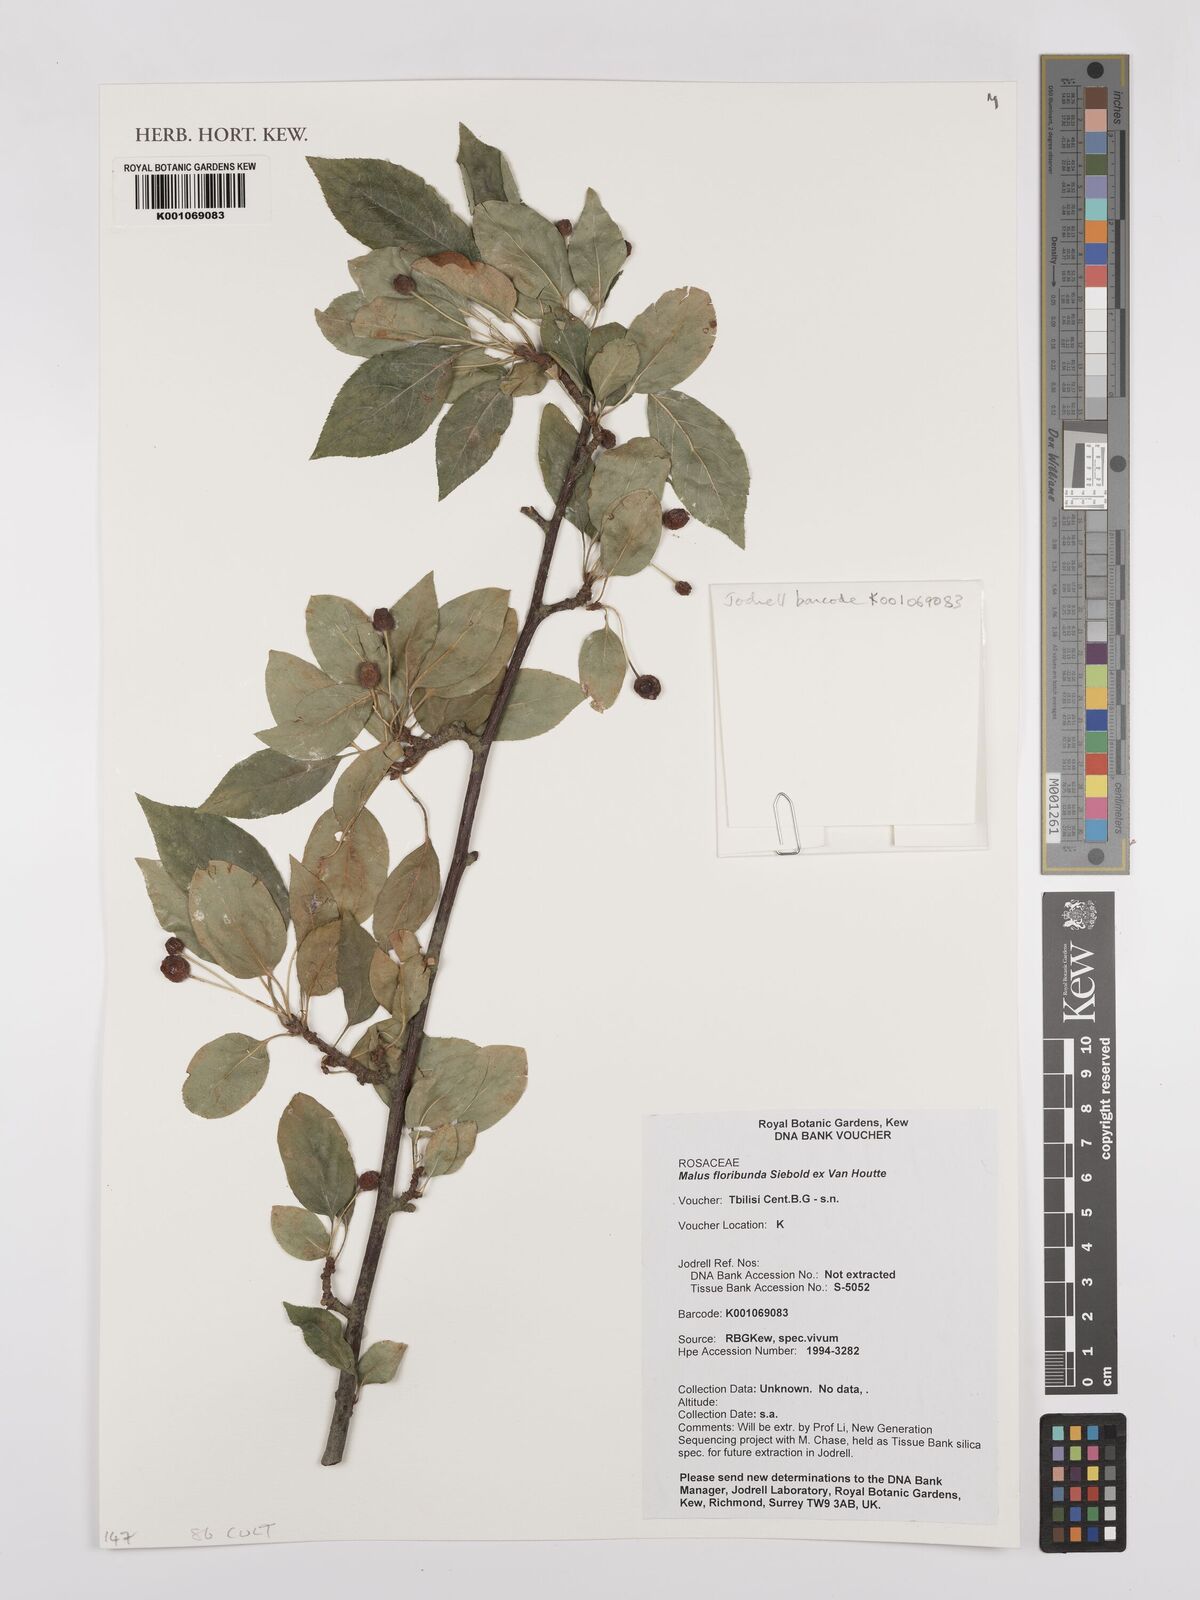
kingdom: Plantae
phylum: Tracheophyta
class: Magnoliopsida
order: Rosales
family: Rosaceae
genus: Malus
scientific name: Malus floribunda
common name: Japanese crab
